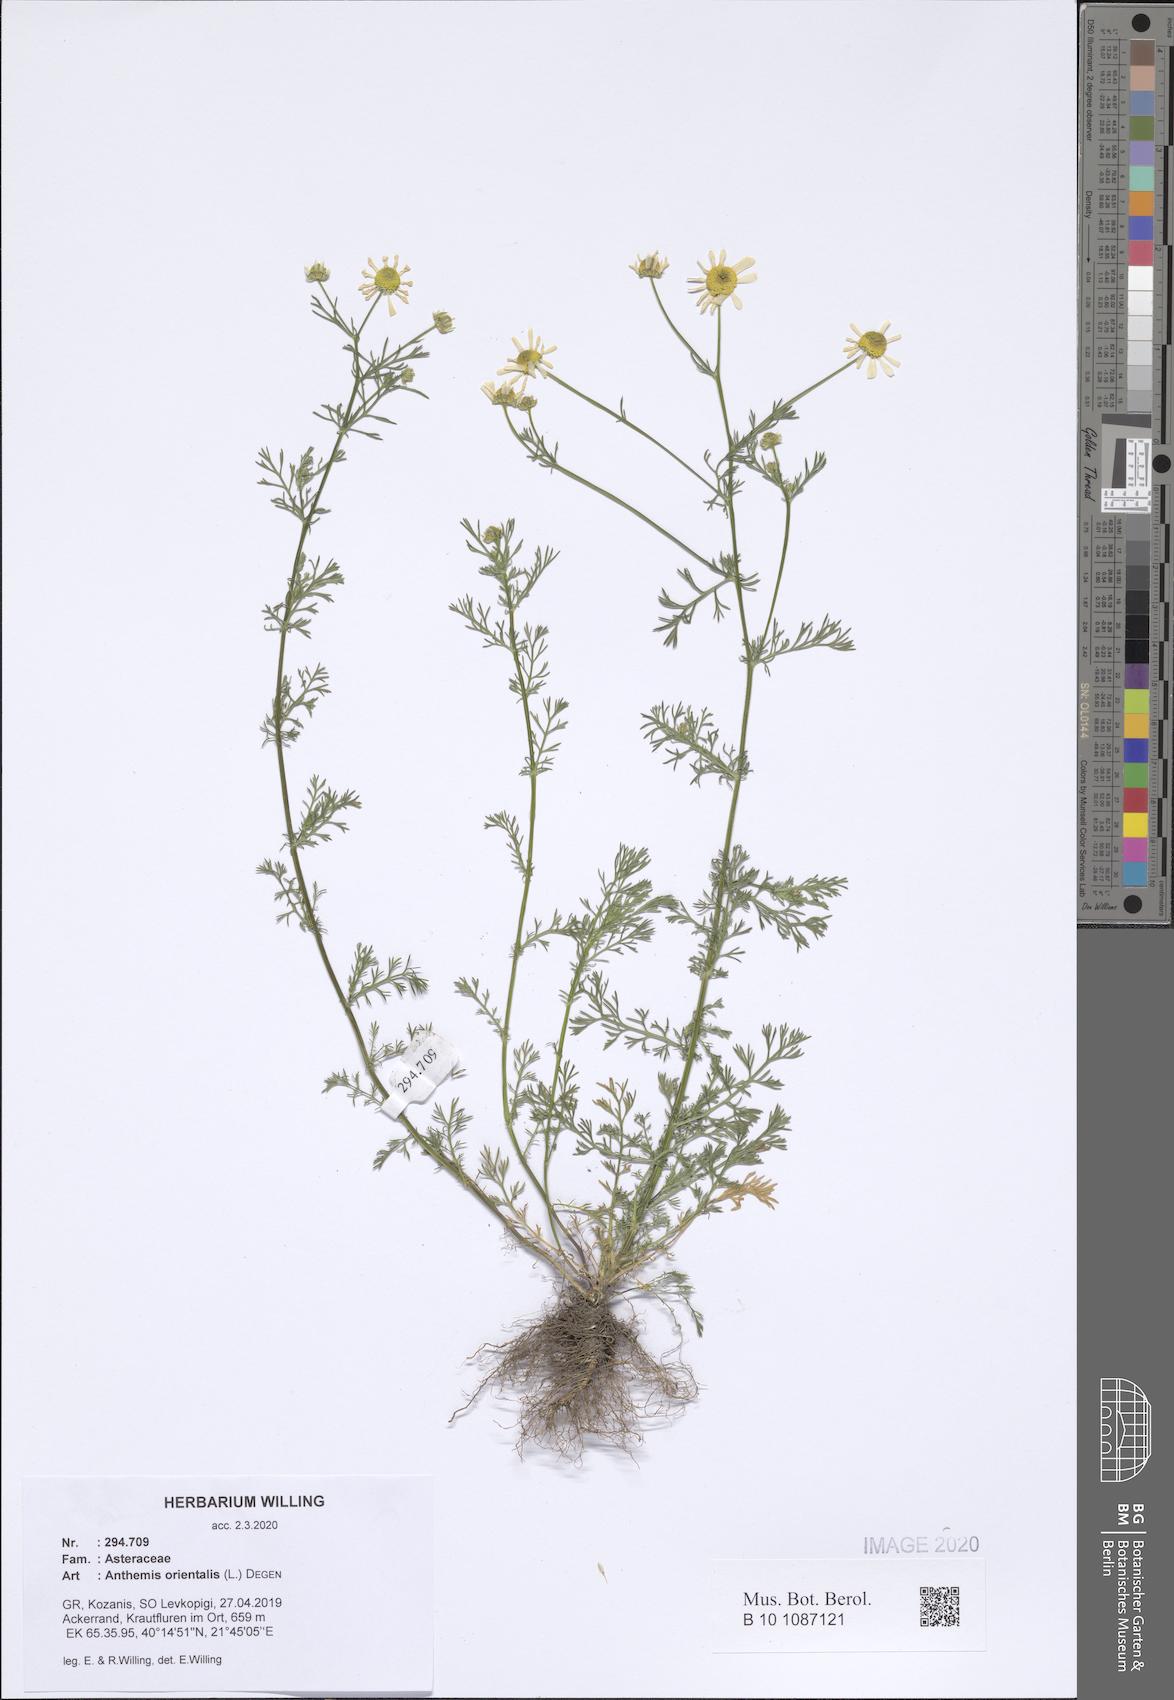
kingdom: Plantae
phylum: Tracheophyta
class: Magnoliopsida
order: Asterales
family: Asteraceae
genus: Matricaria
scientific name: Matricaria chamomilla
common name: Scented mayweed
